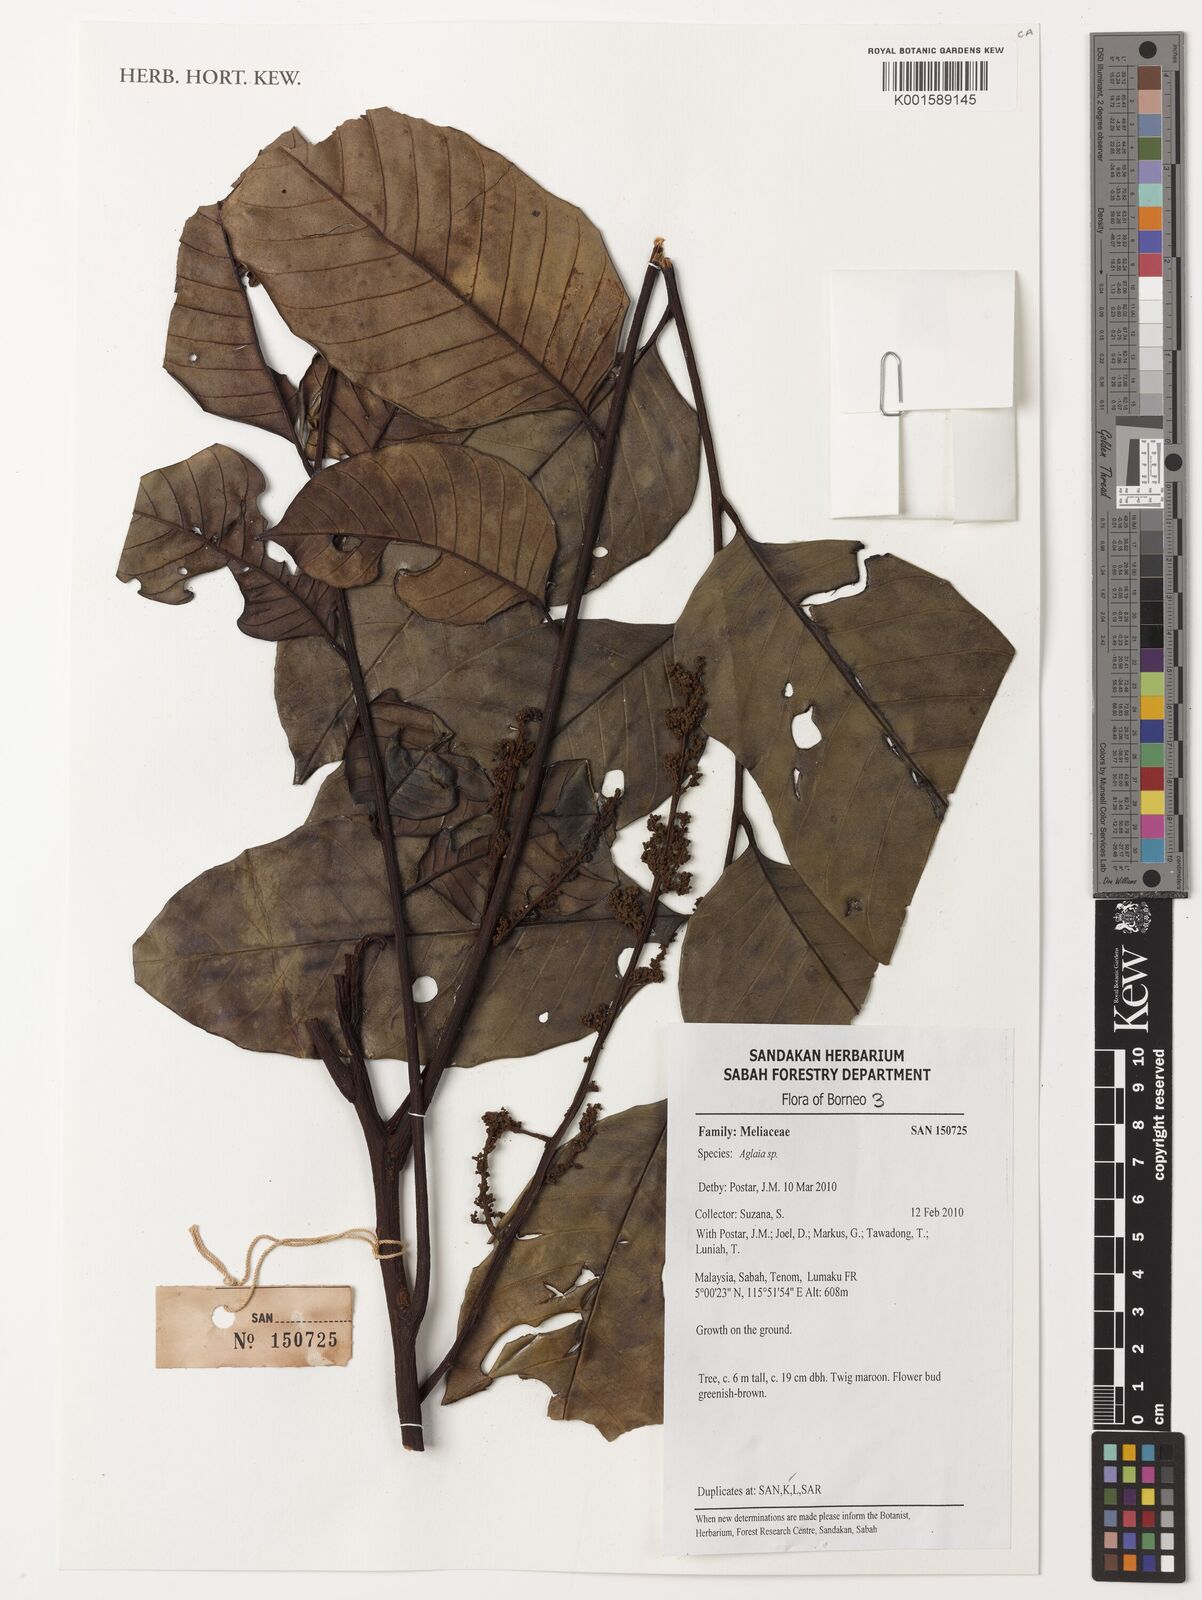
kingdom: Plantae
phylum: Tracheophyta
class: Magnoliopsida
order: Sapindales
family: Meliaceae
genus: Aglaia
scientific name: Aglaia
